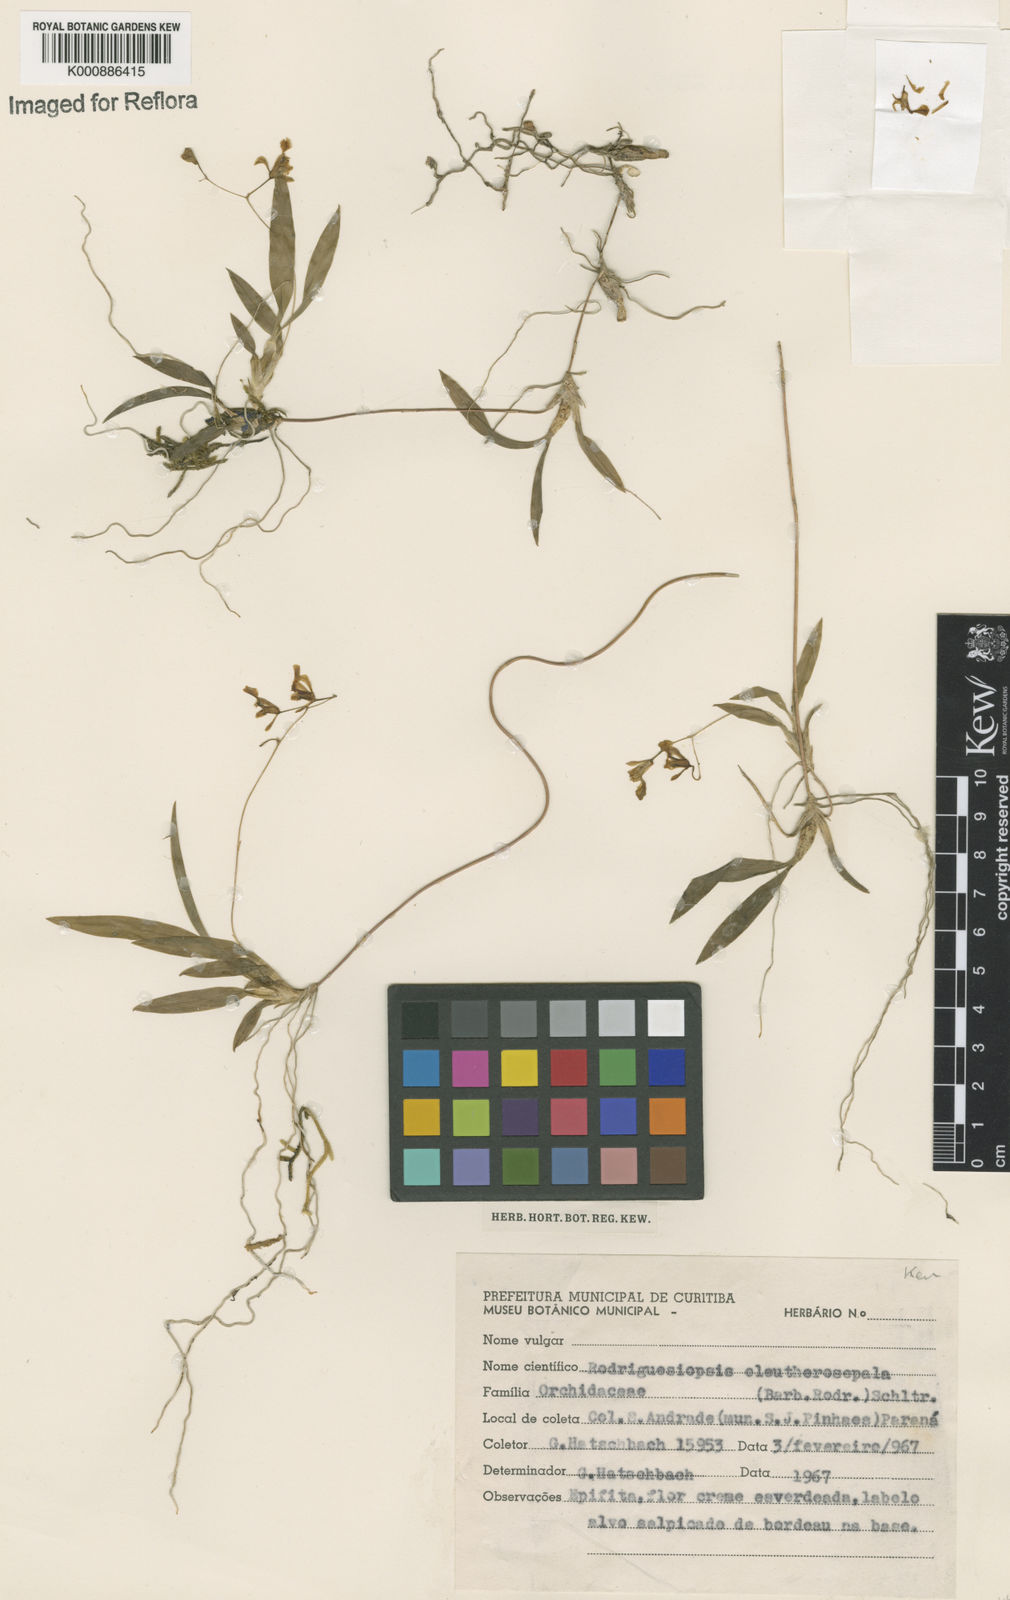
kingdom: Plantae
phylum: Tracheophyta
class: Liliopsida
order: Asparagales
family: Orchidaceae
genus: Gomesa
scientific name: Gomesa microphyta
